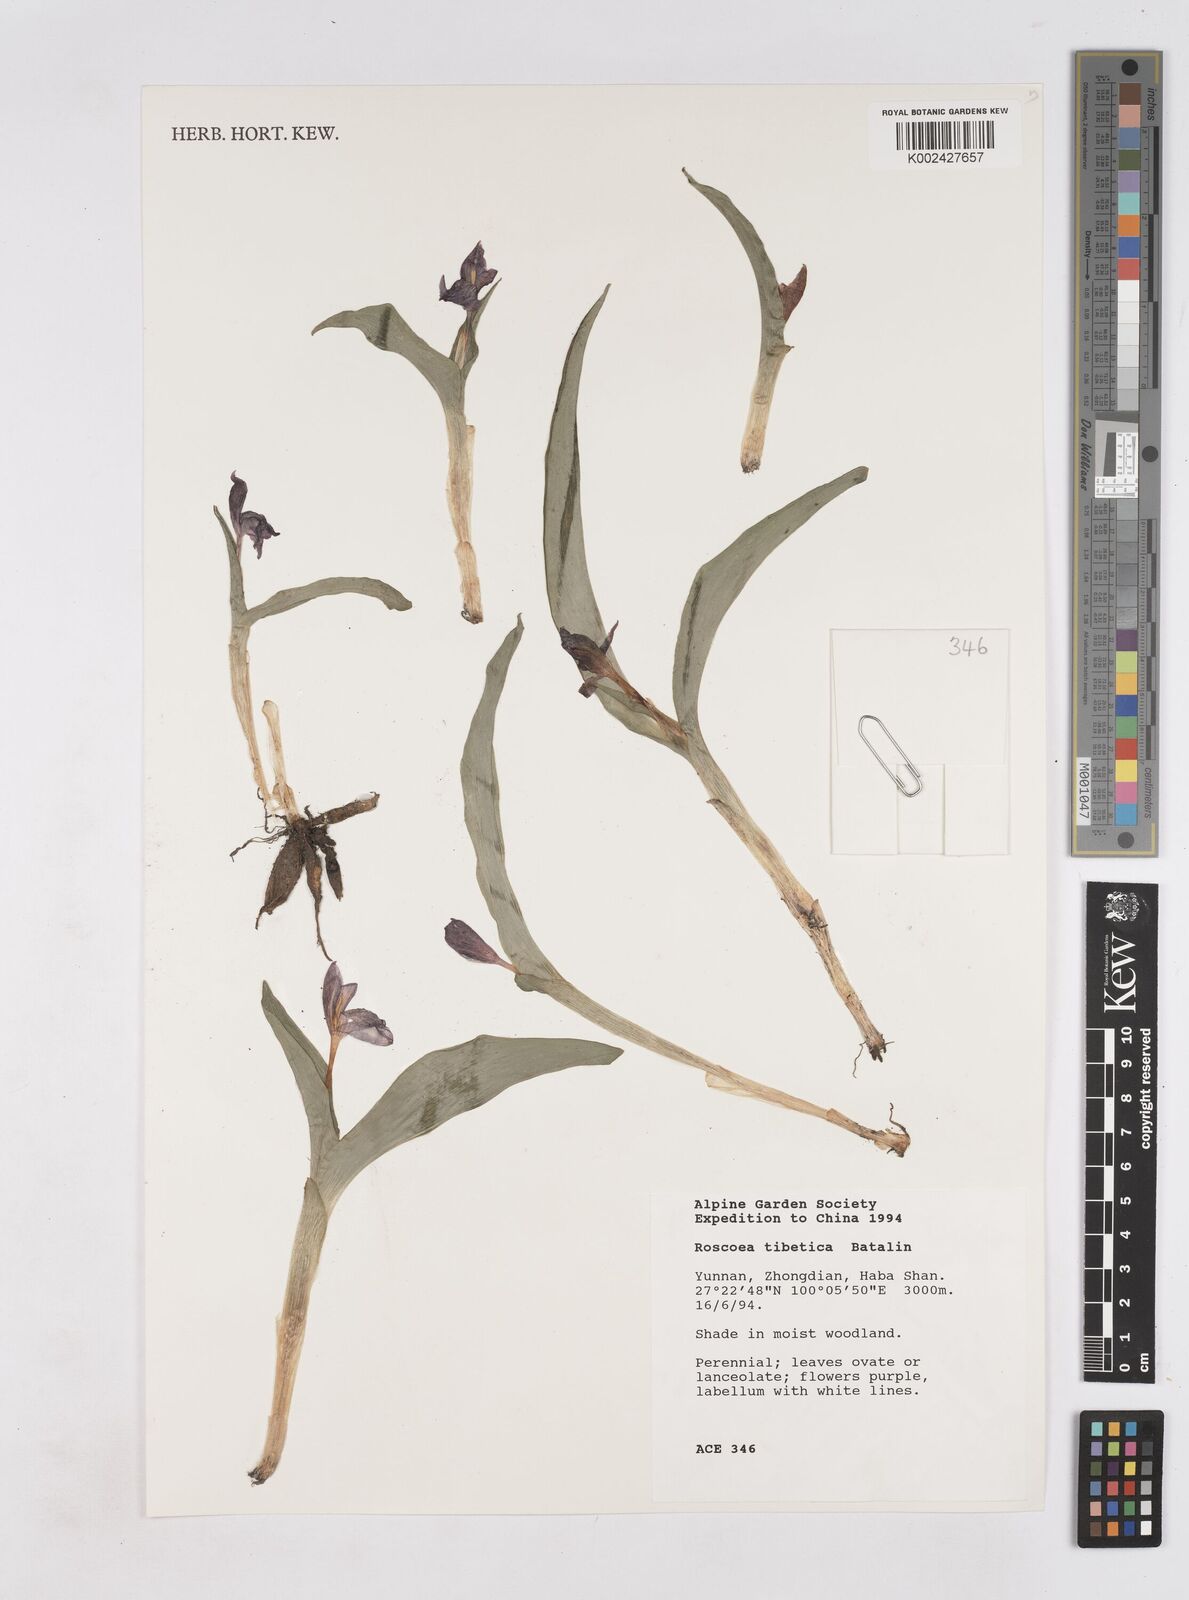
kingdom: Plantae
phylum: Tracheophyta
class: Liliopsida
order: Zingiberales
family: Zingiberaceae
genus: Roscoea
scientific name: Roscoea tibetica
